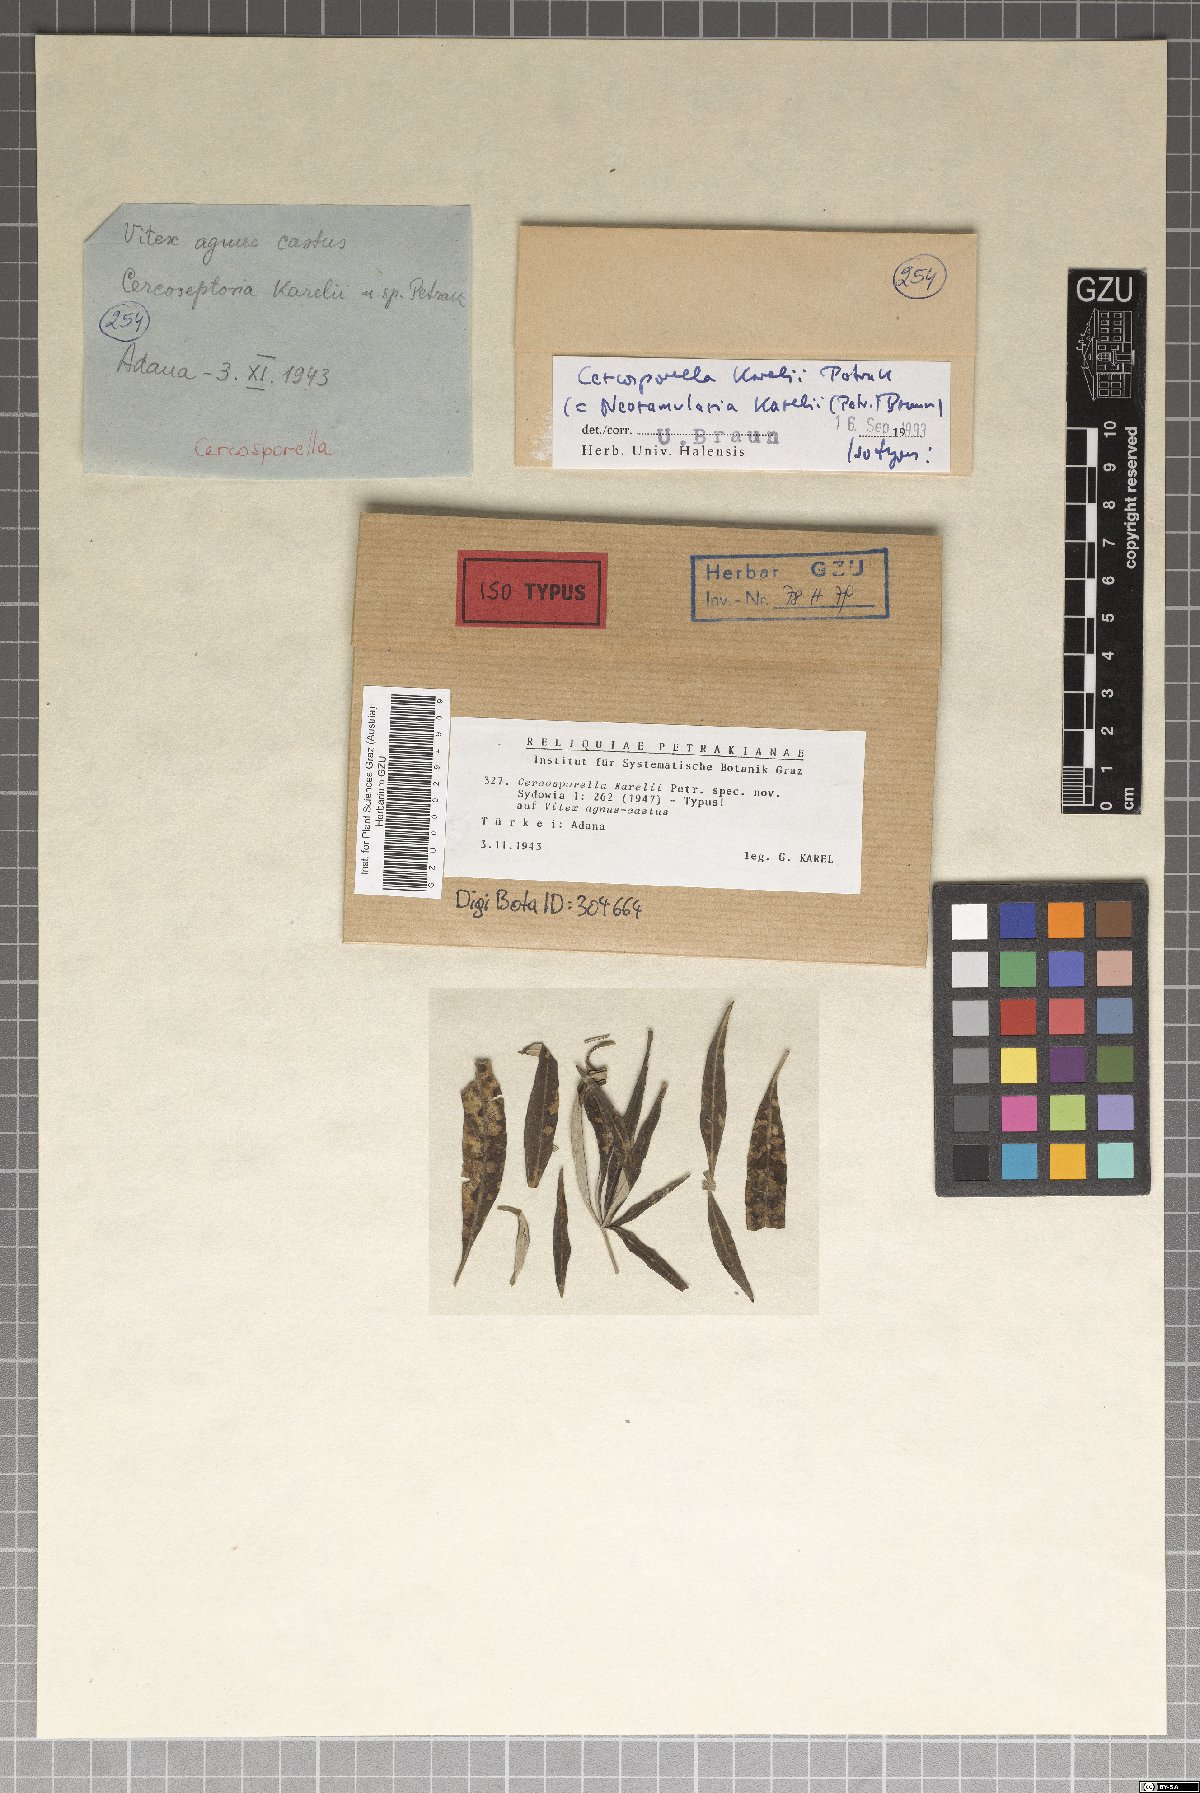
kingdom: Fungi
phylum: Ascomycota
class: Dothideomycetes
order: Mycosphaerellales
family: Mycosphaerellaceae
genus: Cercosporella
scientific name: Cercosporella karelii
